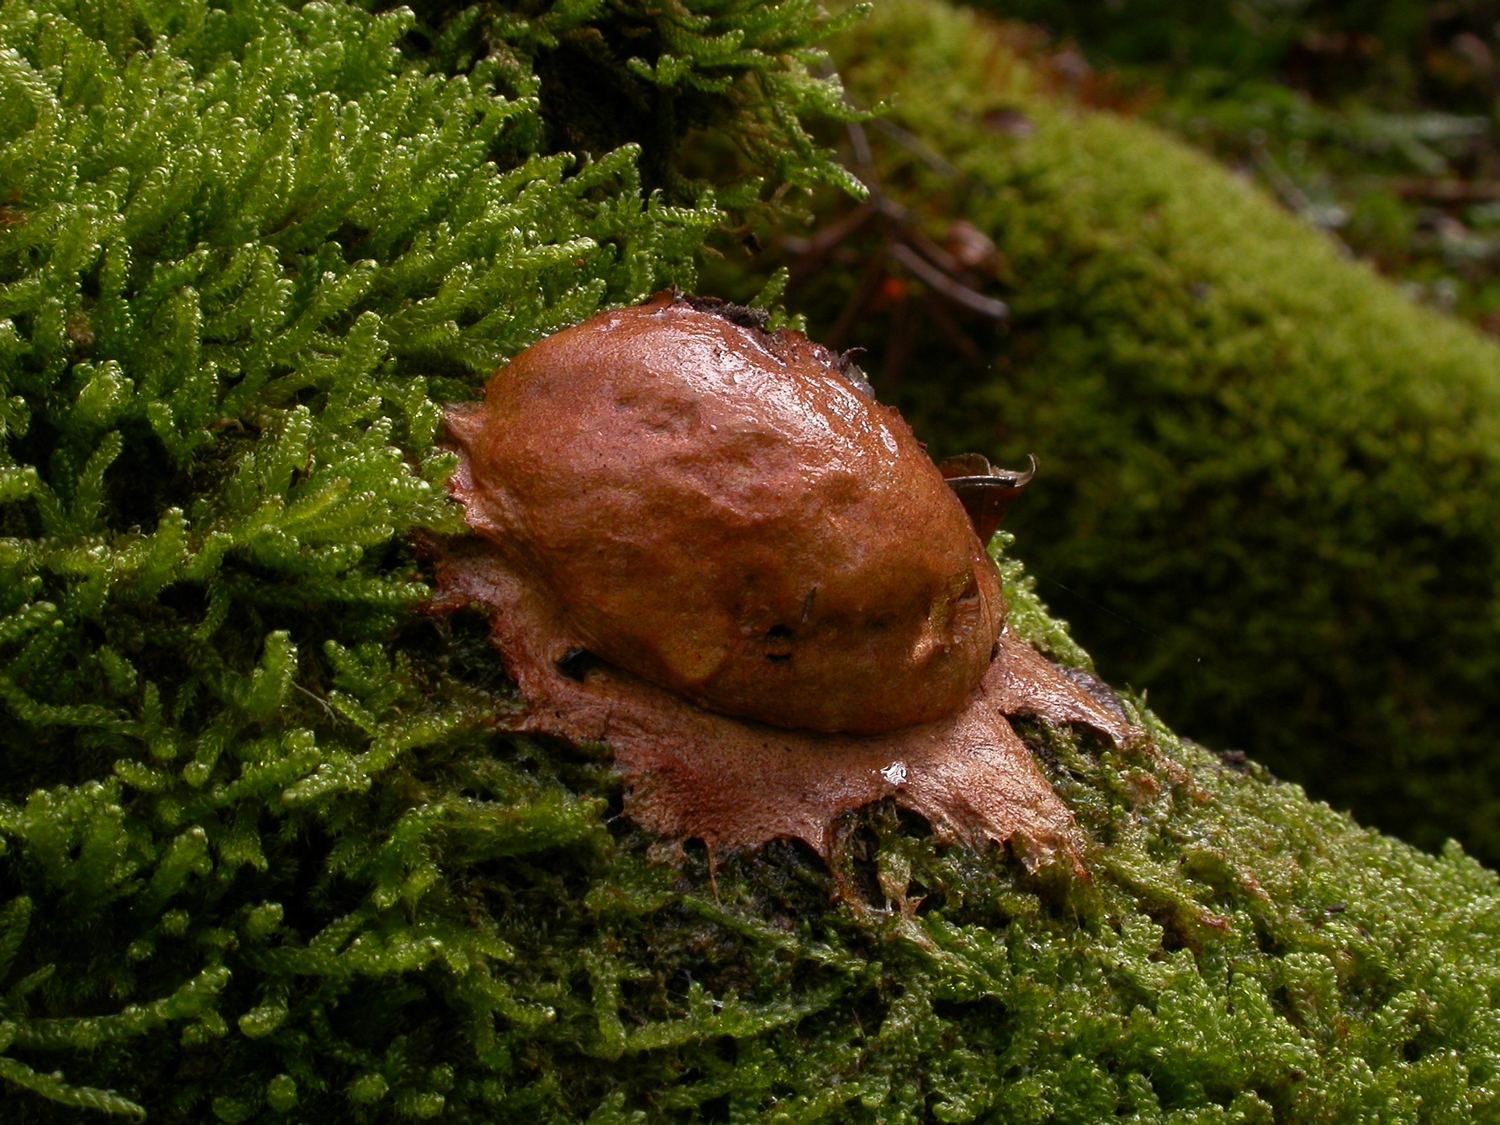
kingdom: Protozoa
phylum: Mycetozoa
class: Myxomycetes
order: Physarales
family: Physaraceae
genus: Fuligo
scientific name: Fuligo leviderma
